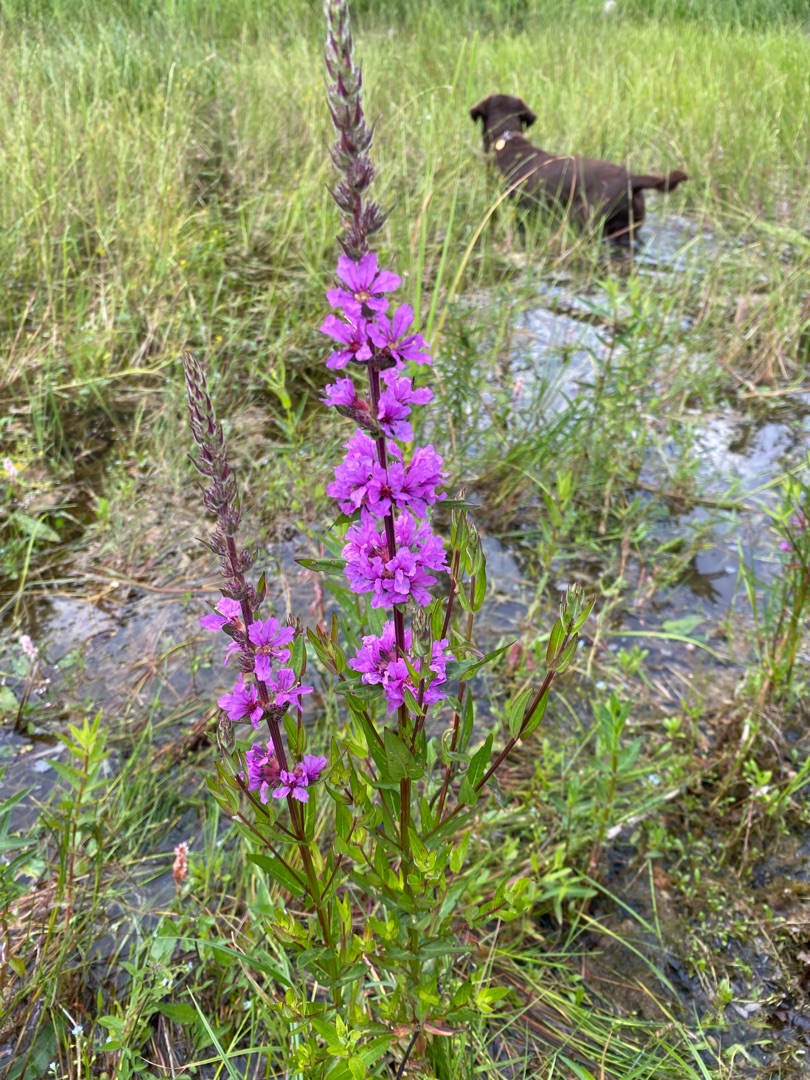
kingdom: Plantae
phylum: Tracheophyta
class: Magnoliopsida
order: Myrtales
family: Lythraceae
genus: Lythrum
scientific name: Lythrum salicaria
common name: Kattehale
